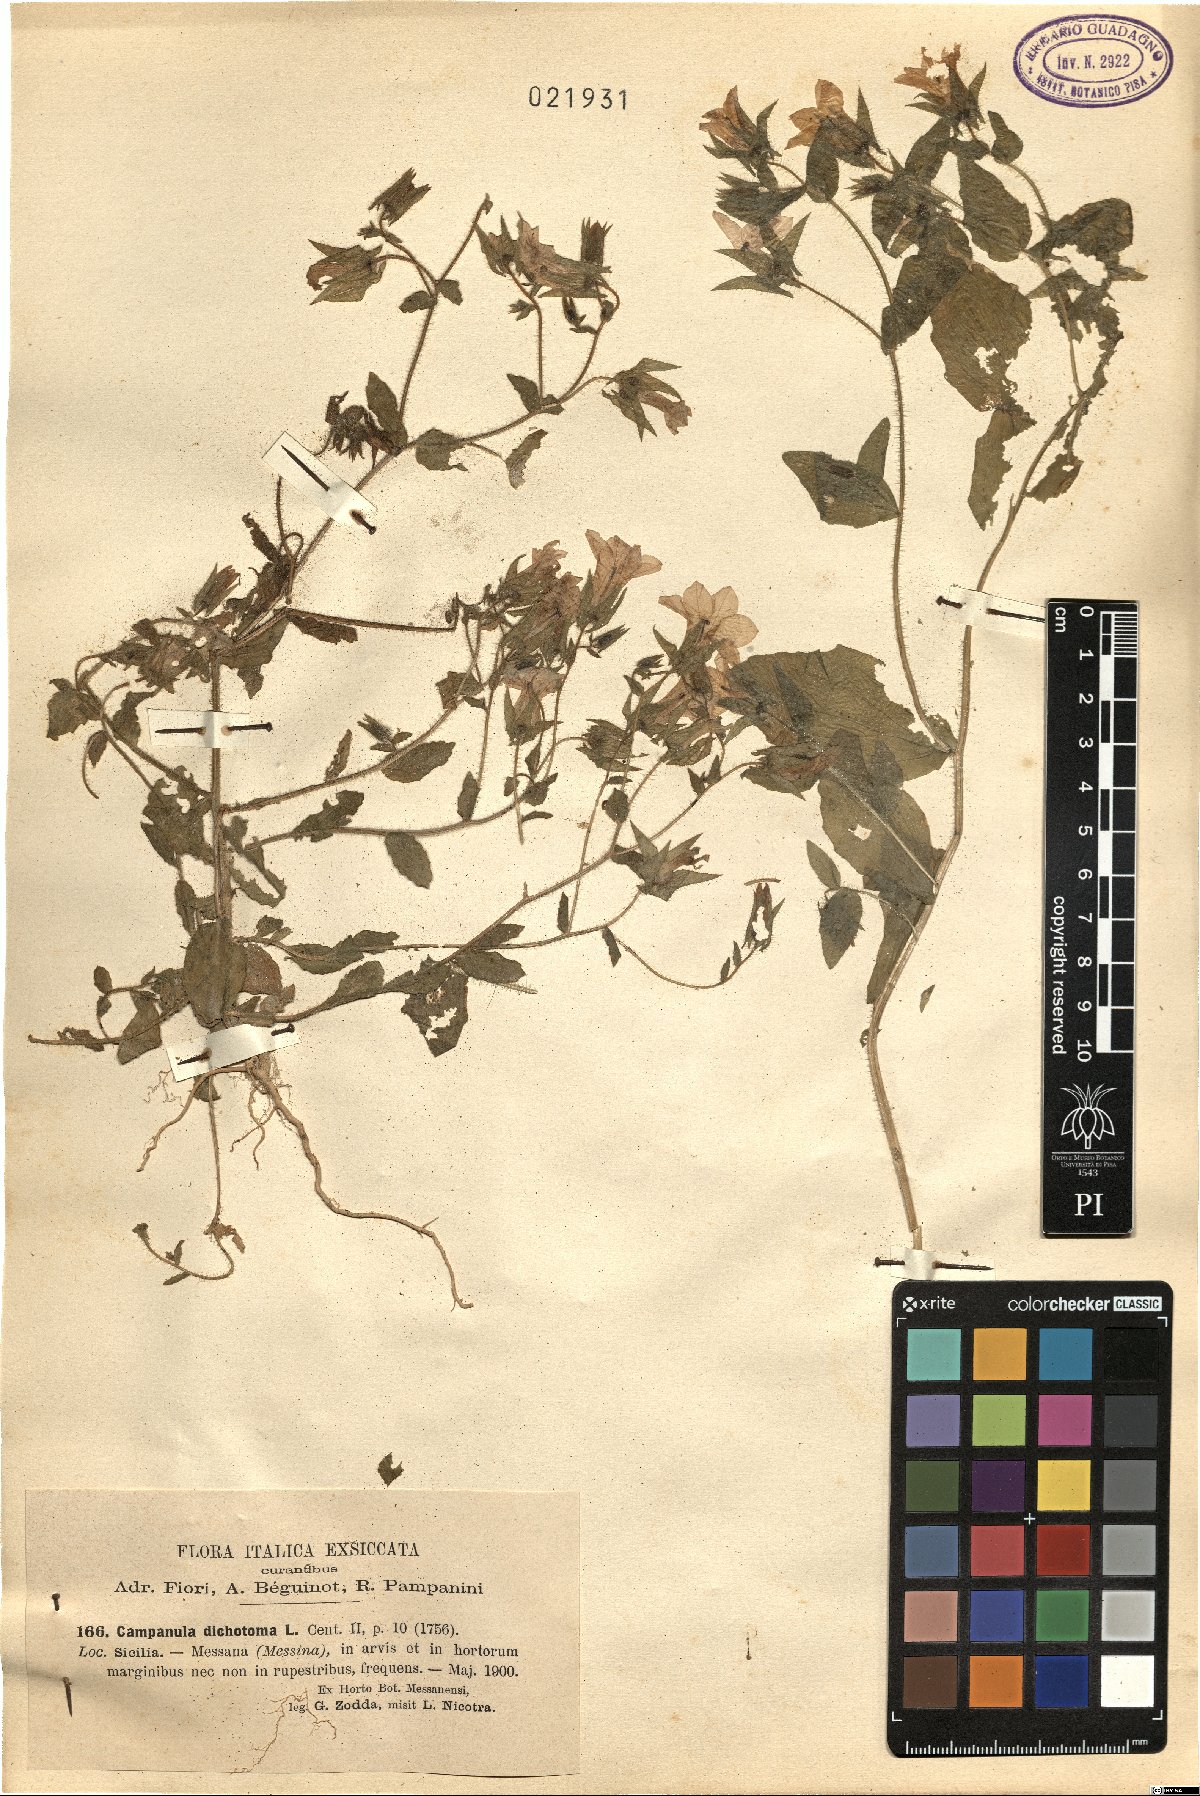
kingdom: Plantae
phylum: Tracheophyta
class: Magnoliopsida
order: Asterales
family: Campanulaceae
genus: Campanula
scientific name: Campanula dichotoma
